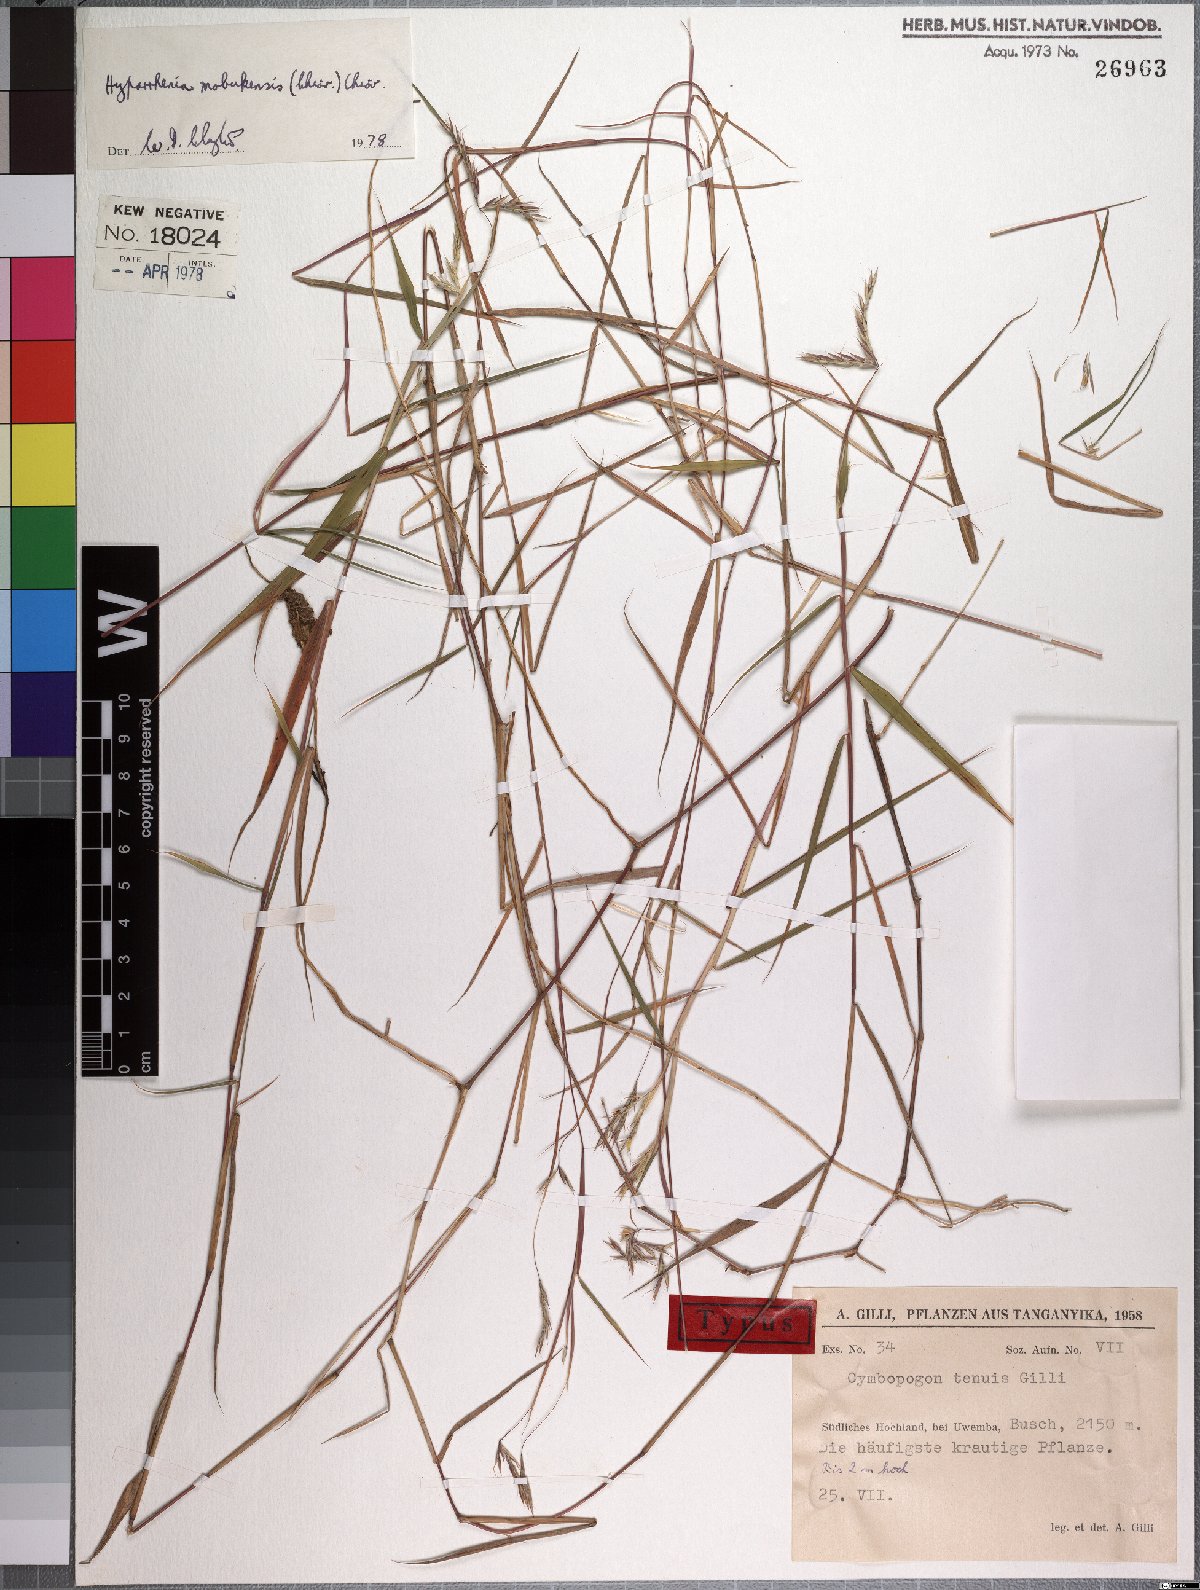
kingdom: Plantae
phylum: Tracheophyta
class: Liliopsida
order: Poales
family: Poaceae
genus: Hyparrhenia
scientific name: Hyparrhenia mobukensis
